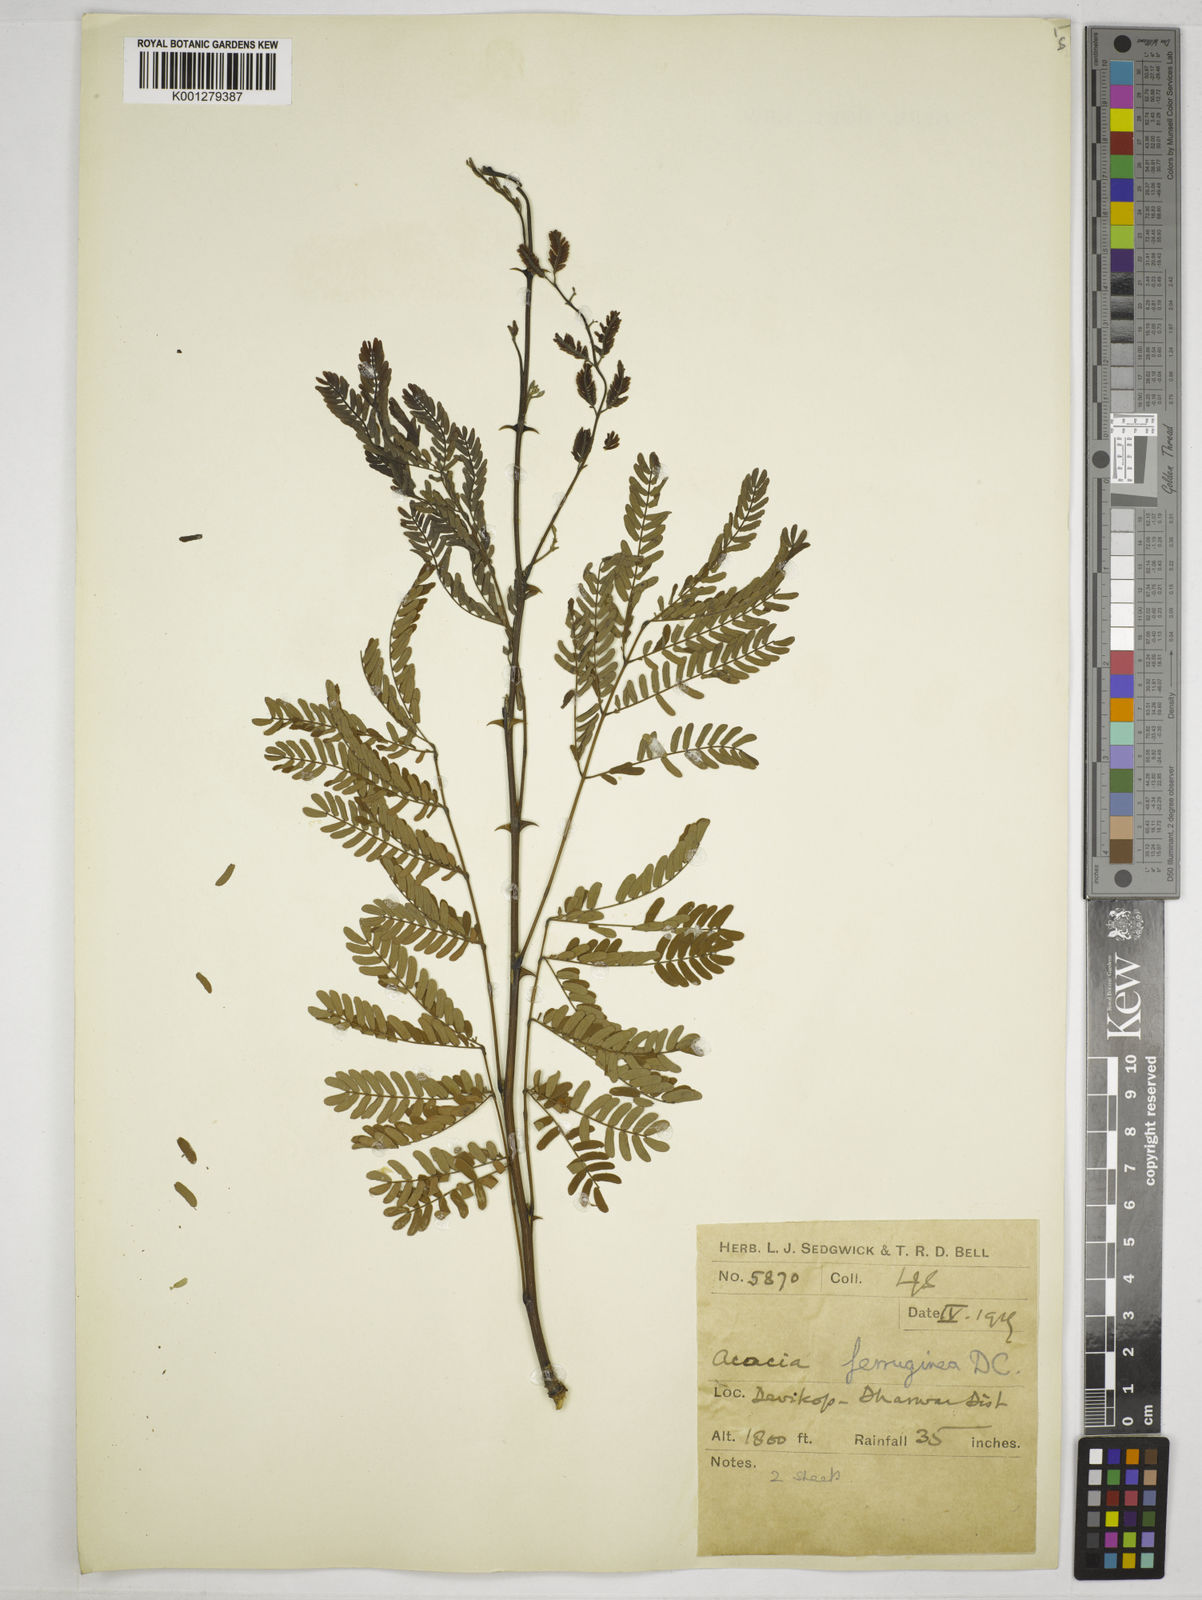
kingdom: Plantae
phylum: Tracheophyta
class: Magnoliopsida
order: Fabales
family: Fabaceae
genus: Senegalia
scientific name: Senegalia ferruginea
